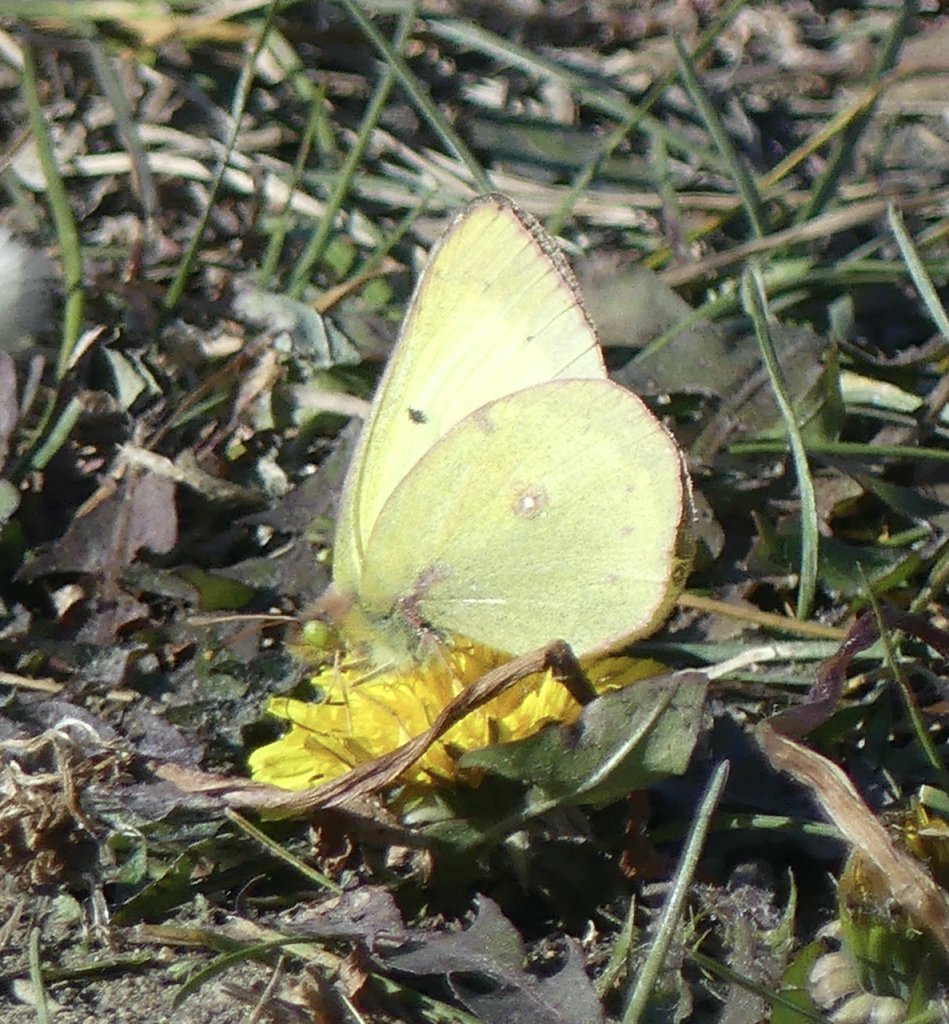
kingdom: Animalia
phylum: Arthropoda
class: Insecta
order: Lepidoptera
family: Pieridae
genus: Colias
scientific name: Colias philodice
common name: Clouded Sulphur
